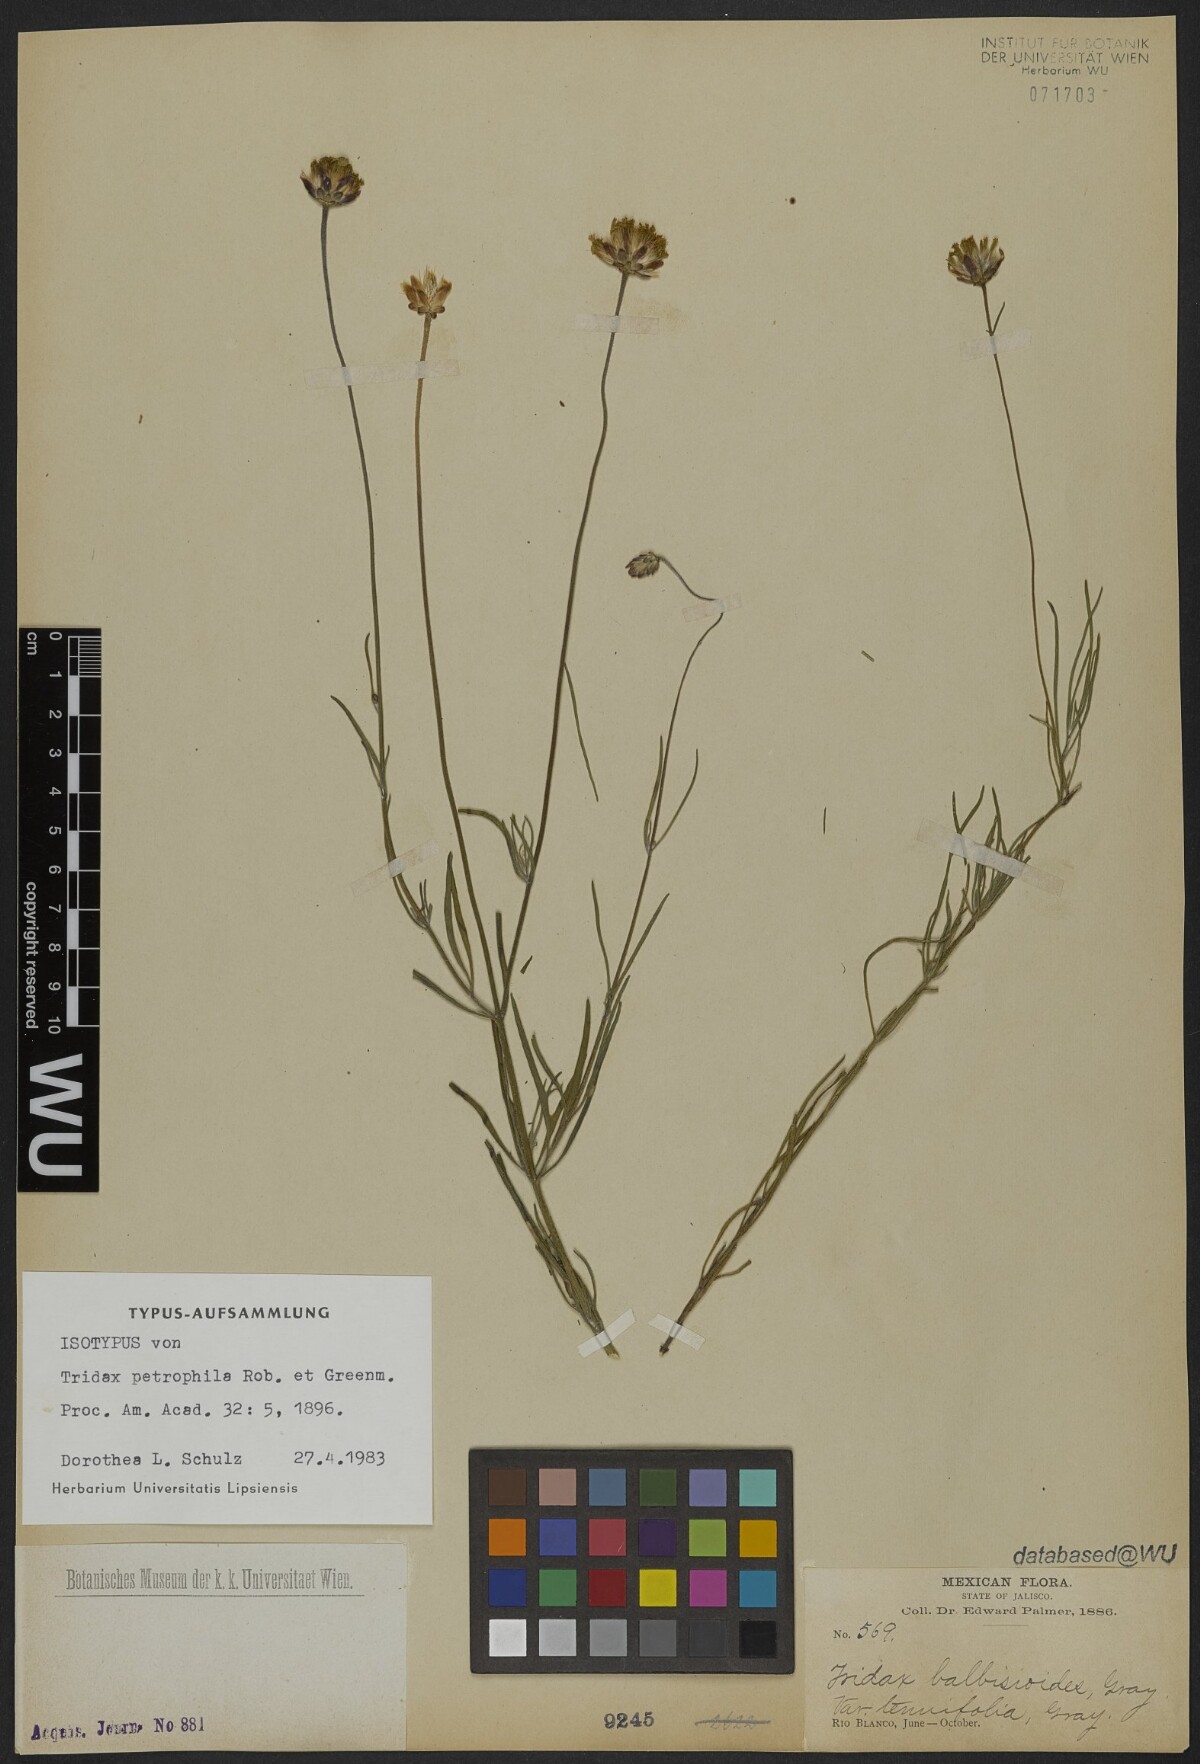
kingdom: Plantae
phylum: Tracheophyta
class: Magnoliopsida
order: Asterales
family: Asteraceae
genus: Tridax
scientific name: Tridax petrophila
